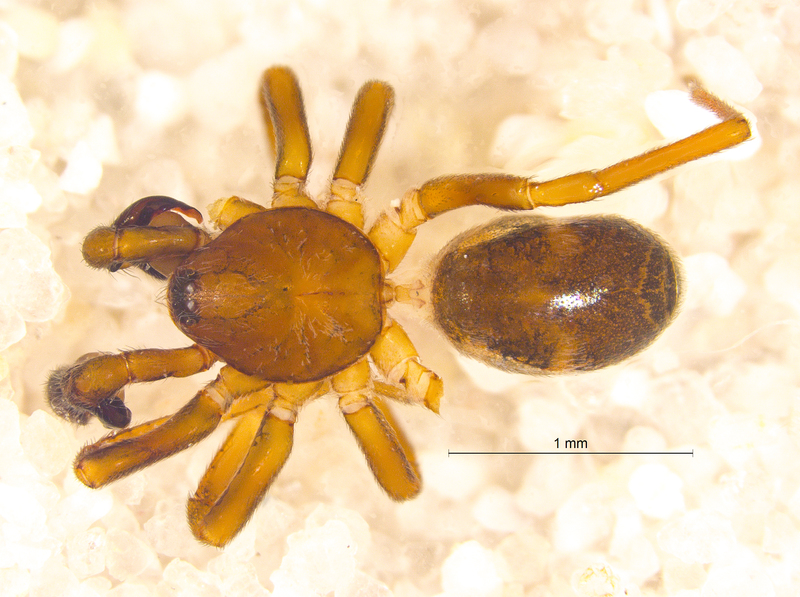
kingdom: Animalia
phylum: Arthropoda
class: Arachnida
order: Araneae
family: Phrurolithidae
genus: Phrurolithus
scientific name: Phrurolithus festivus
